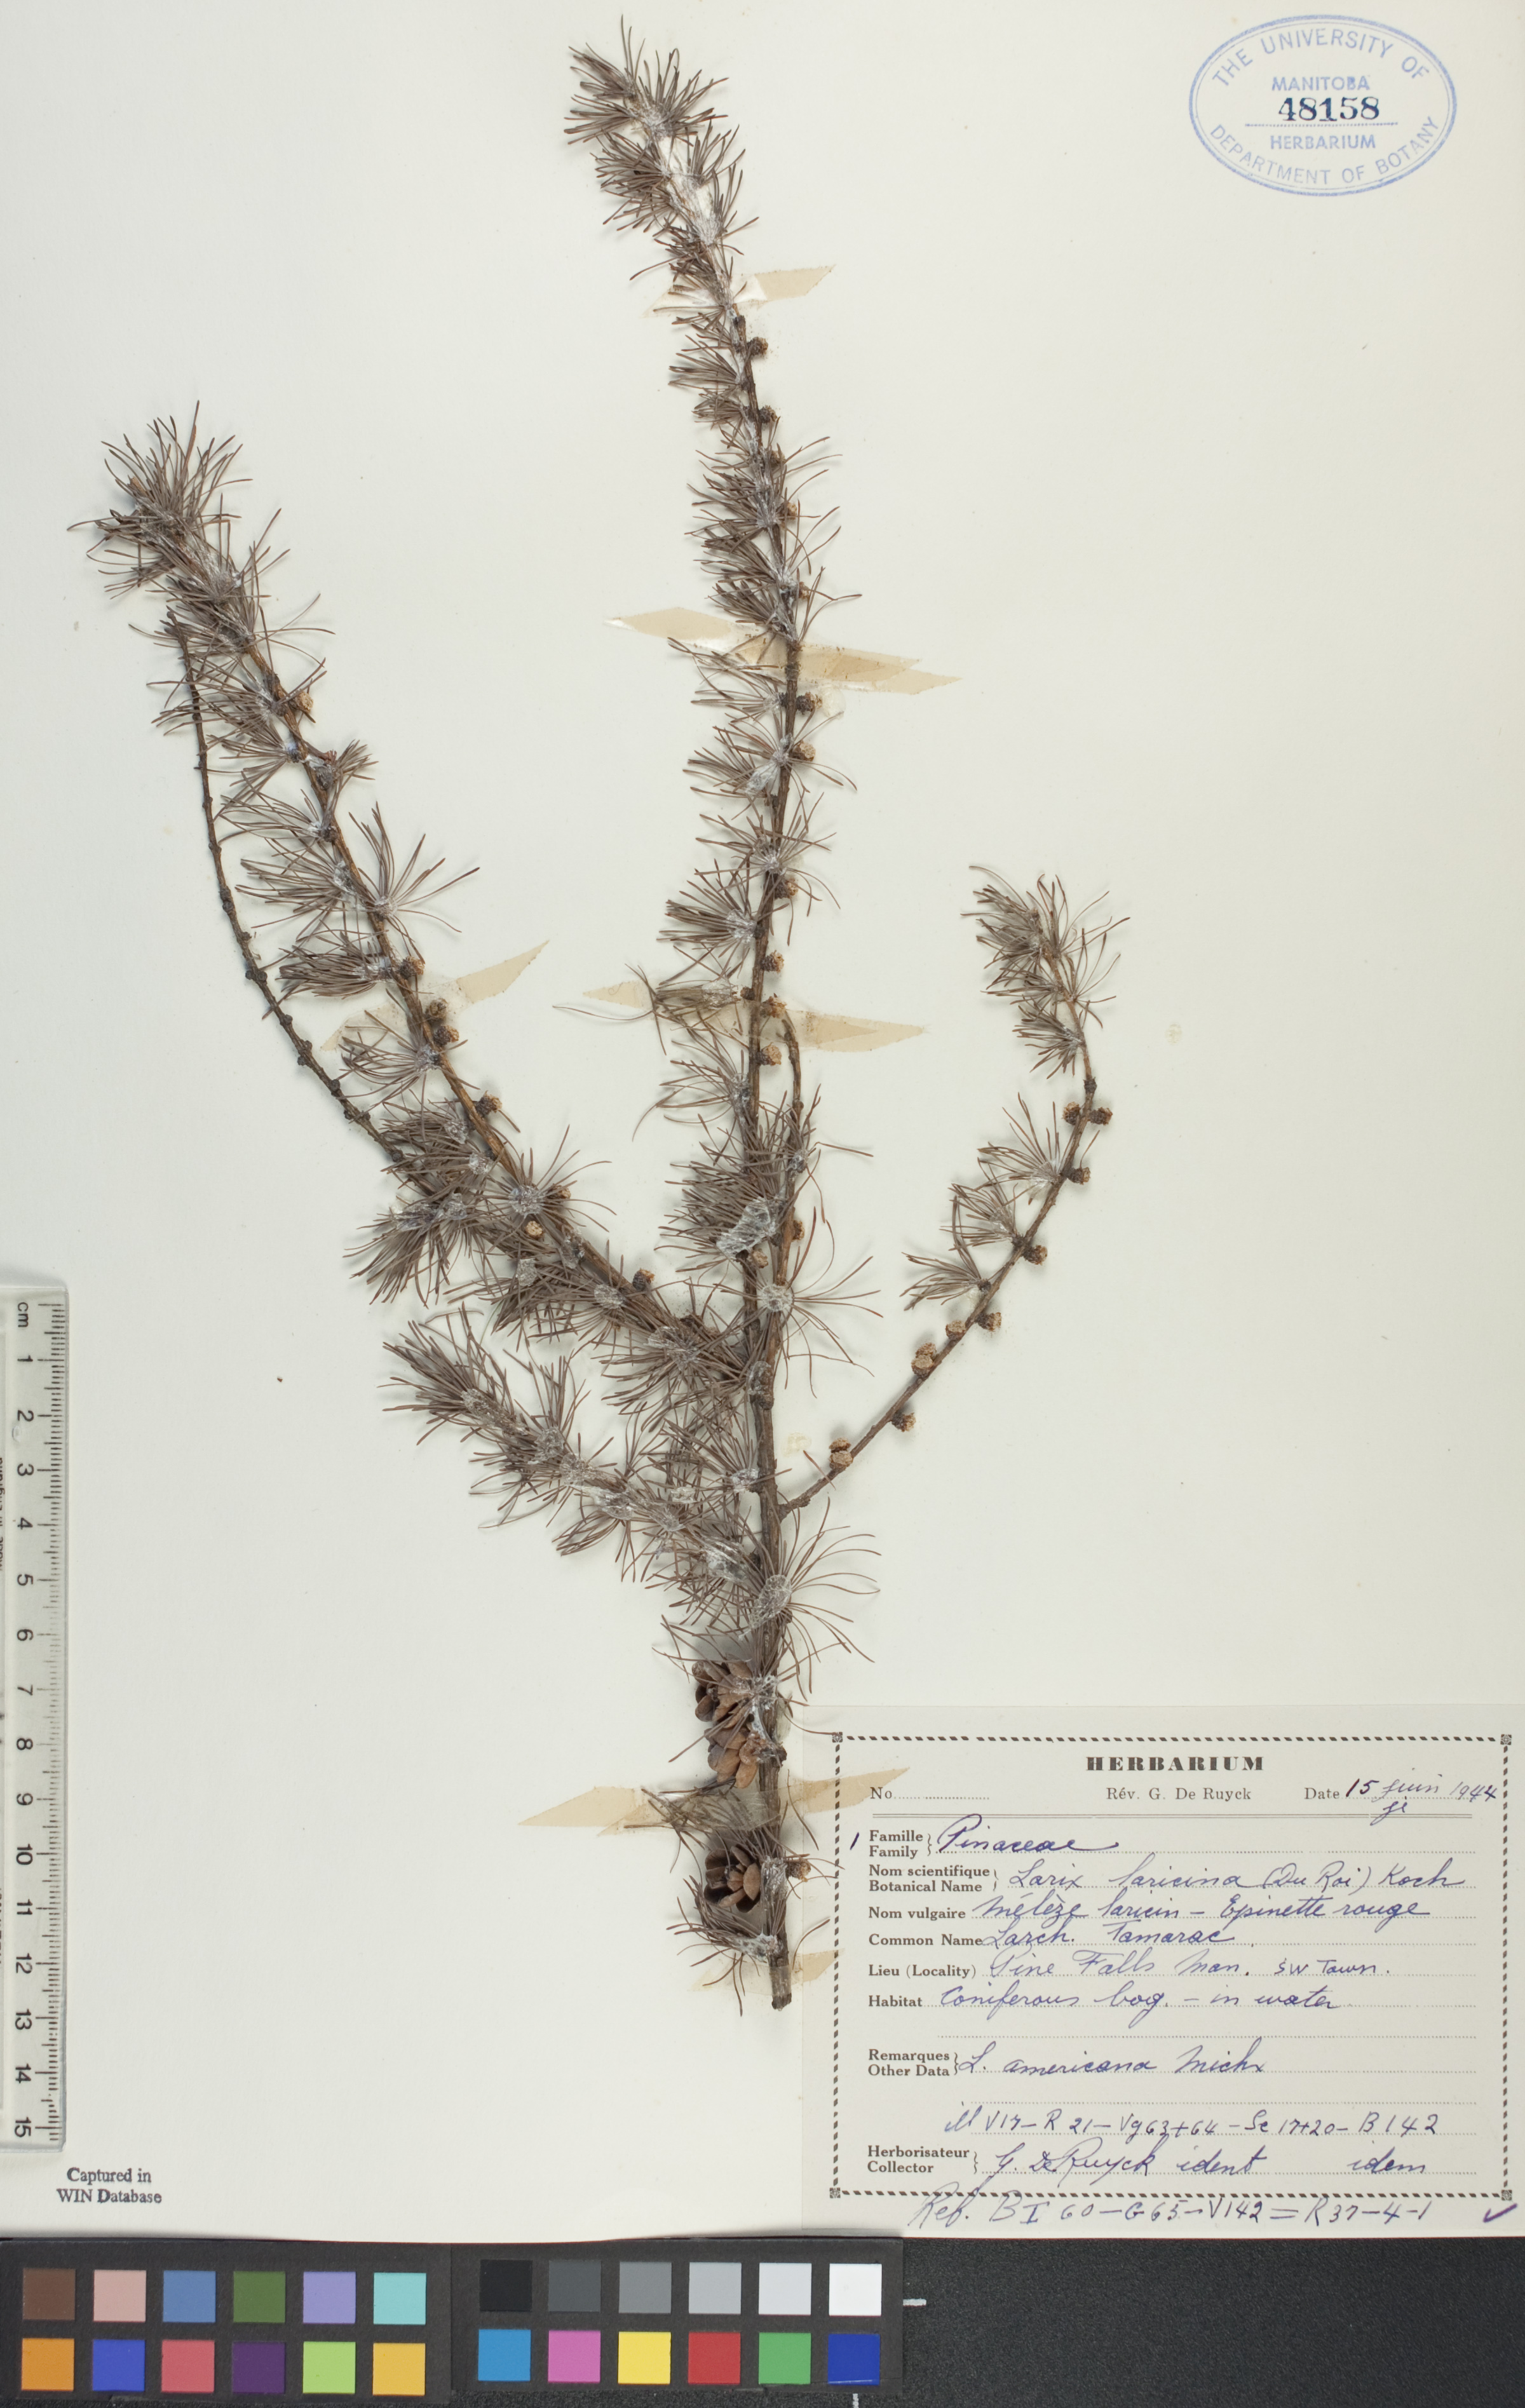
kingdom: Plantae
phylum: Tracheophyta
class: Pinopsida
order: Pinales
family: Pinaceae
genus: Larix
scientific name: Larix laricina
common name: American larch
